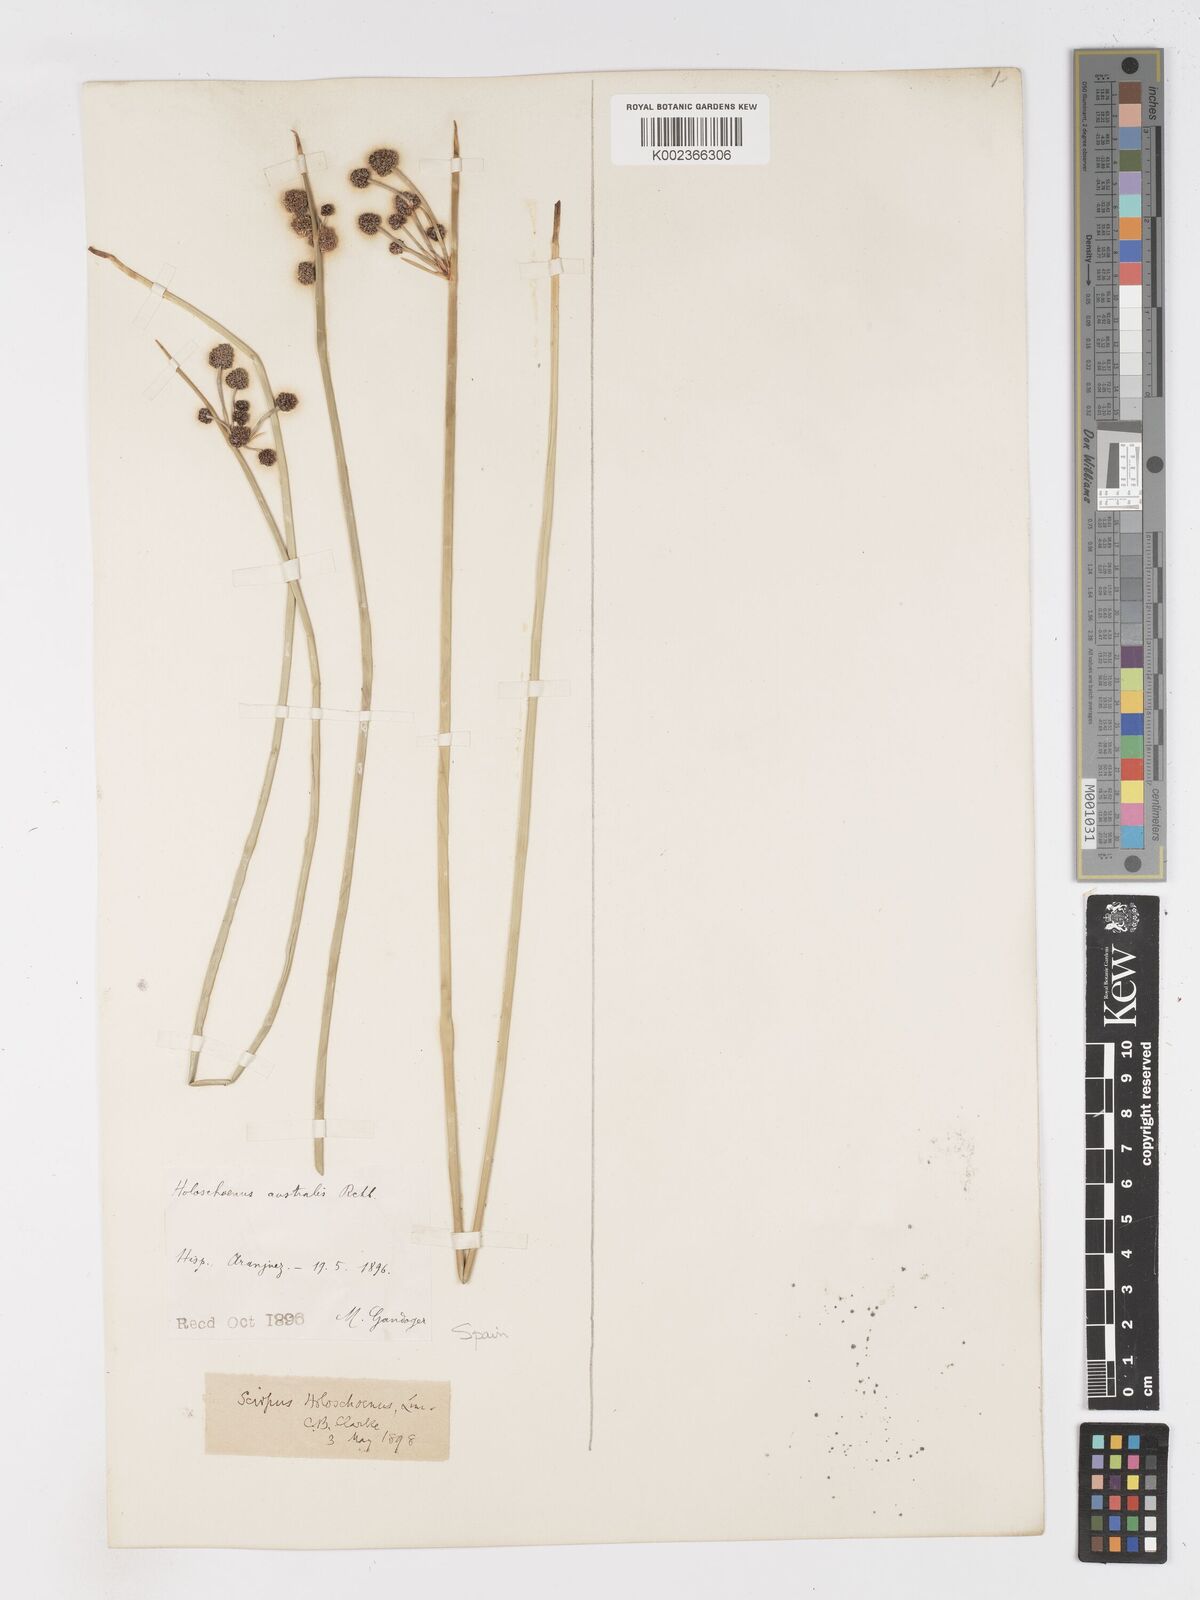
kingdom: Plantae
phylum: Tracheophyta
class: Liliopsida
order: Poales
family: Cyperaceae
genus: Scirpoides
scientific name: Scirpoides holoschoenus
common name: Round-headed club-rush
